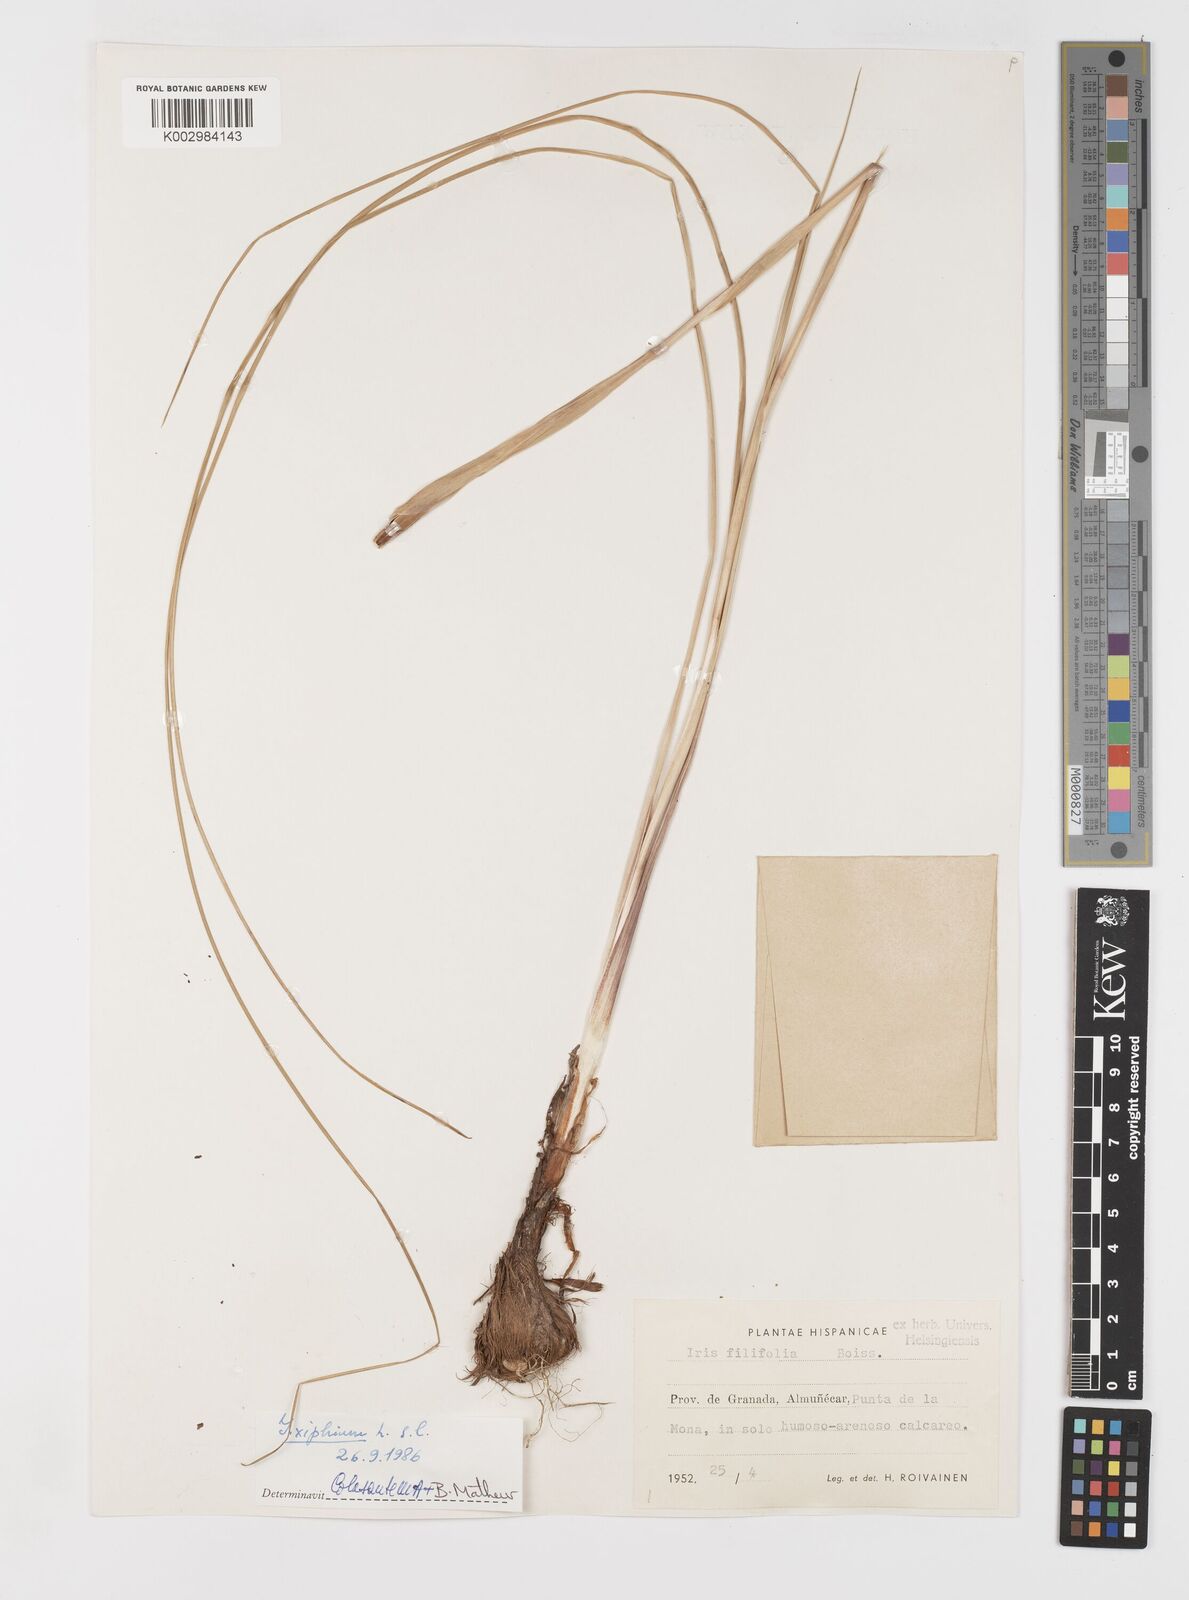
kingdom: Plantae
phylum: Tracheophyta
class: Liliopsida
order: Asparagales
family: Iridaceae
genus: Iris
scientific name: Iris xiphium
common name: Spanish iris
